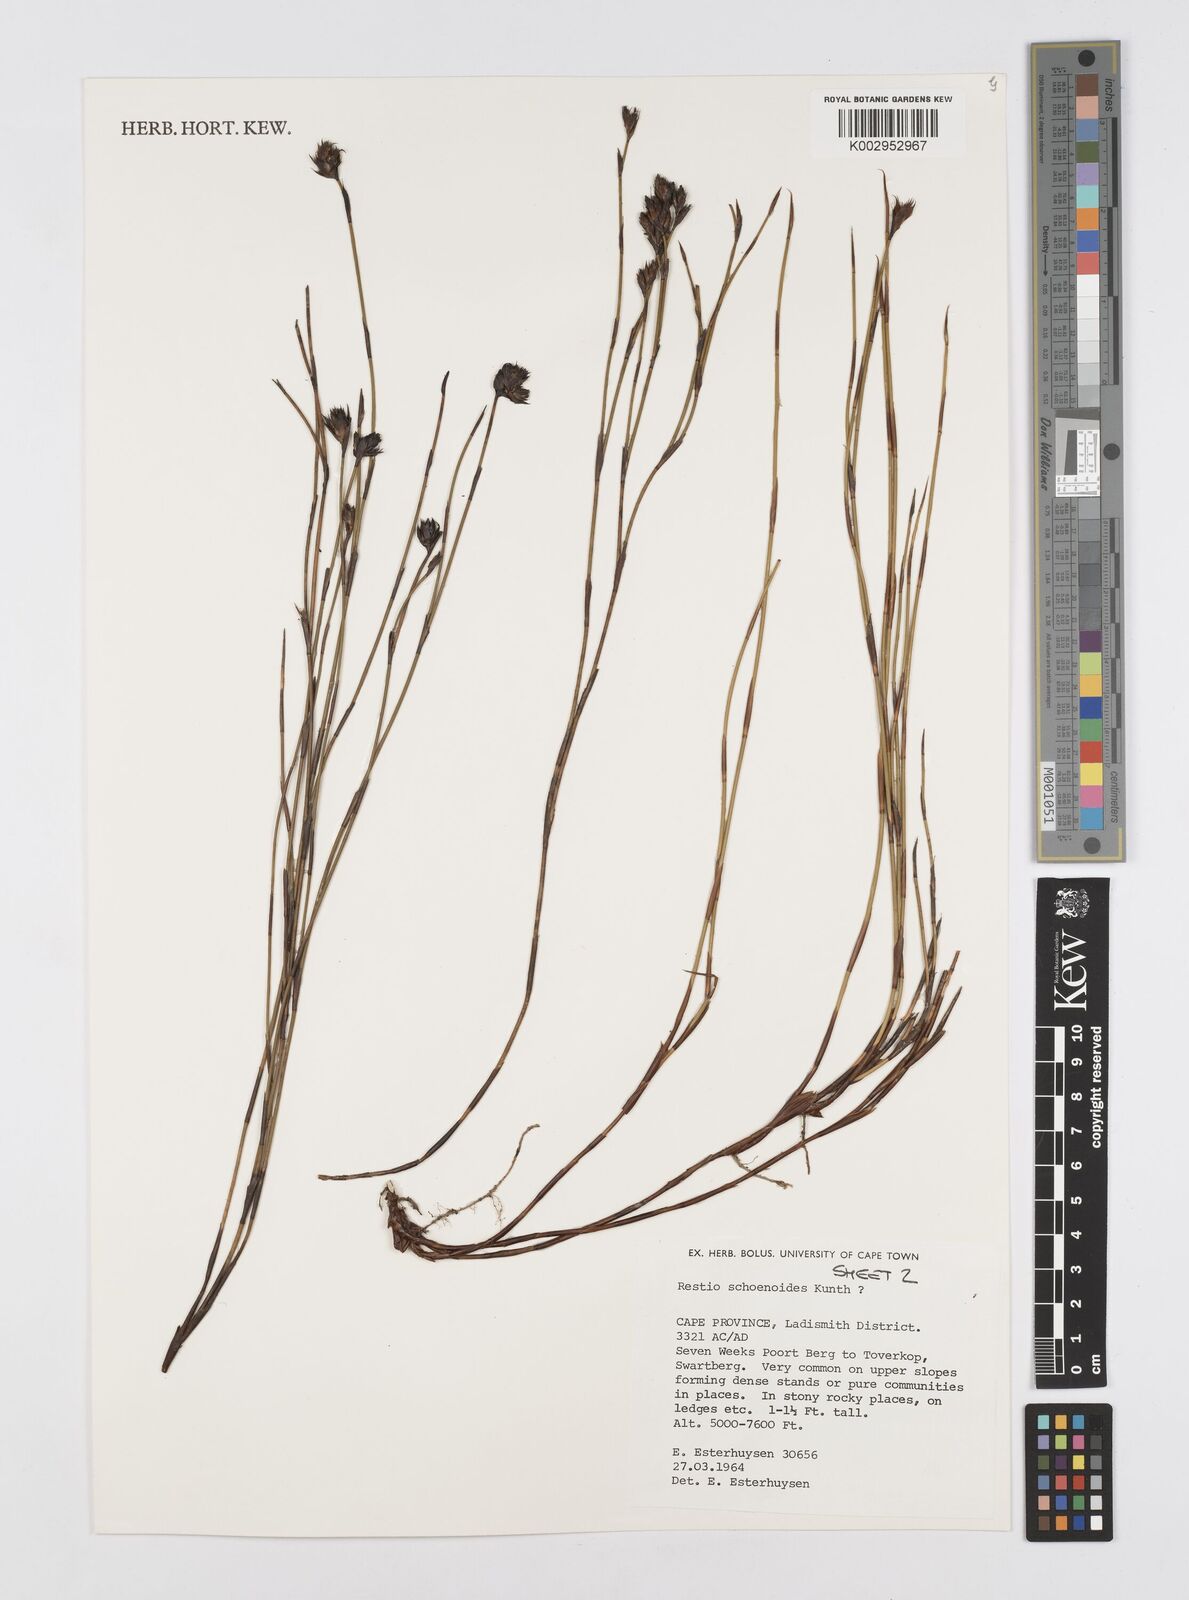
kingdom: Plantae
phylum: Tracheophyta
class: Liliopsida
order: Poales
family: Restionaceae
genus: Restio
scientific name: Restio schoenoides
